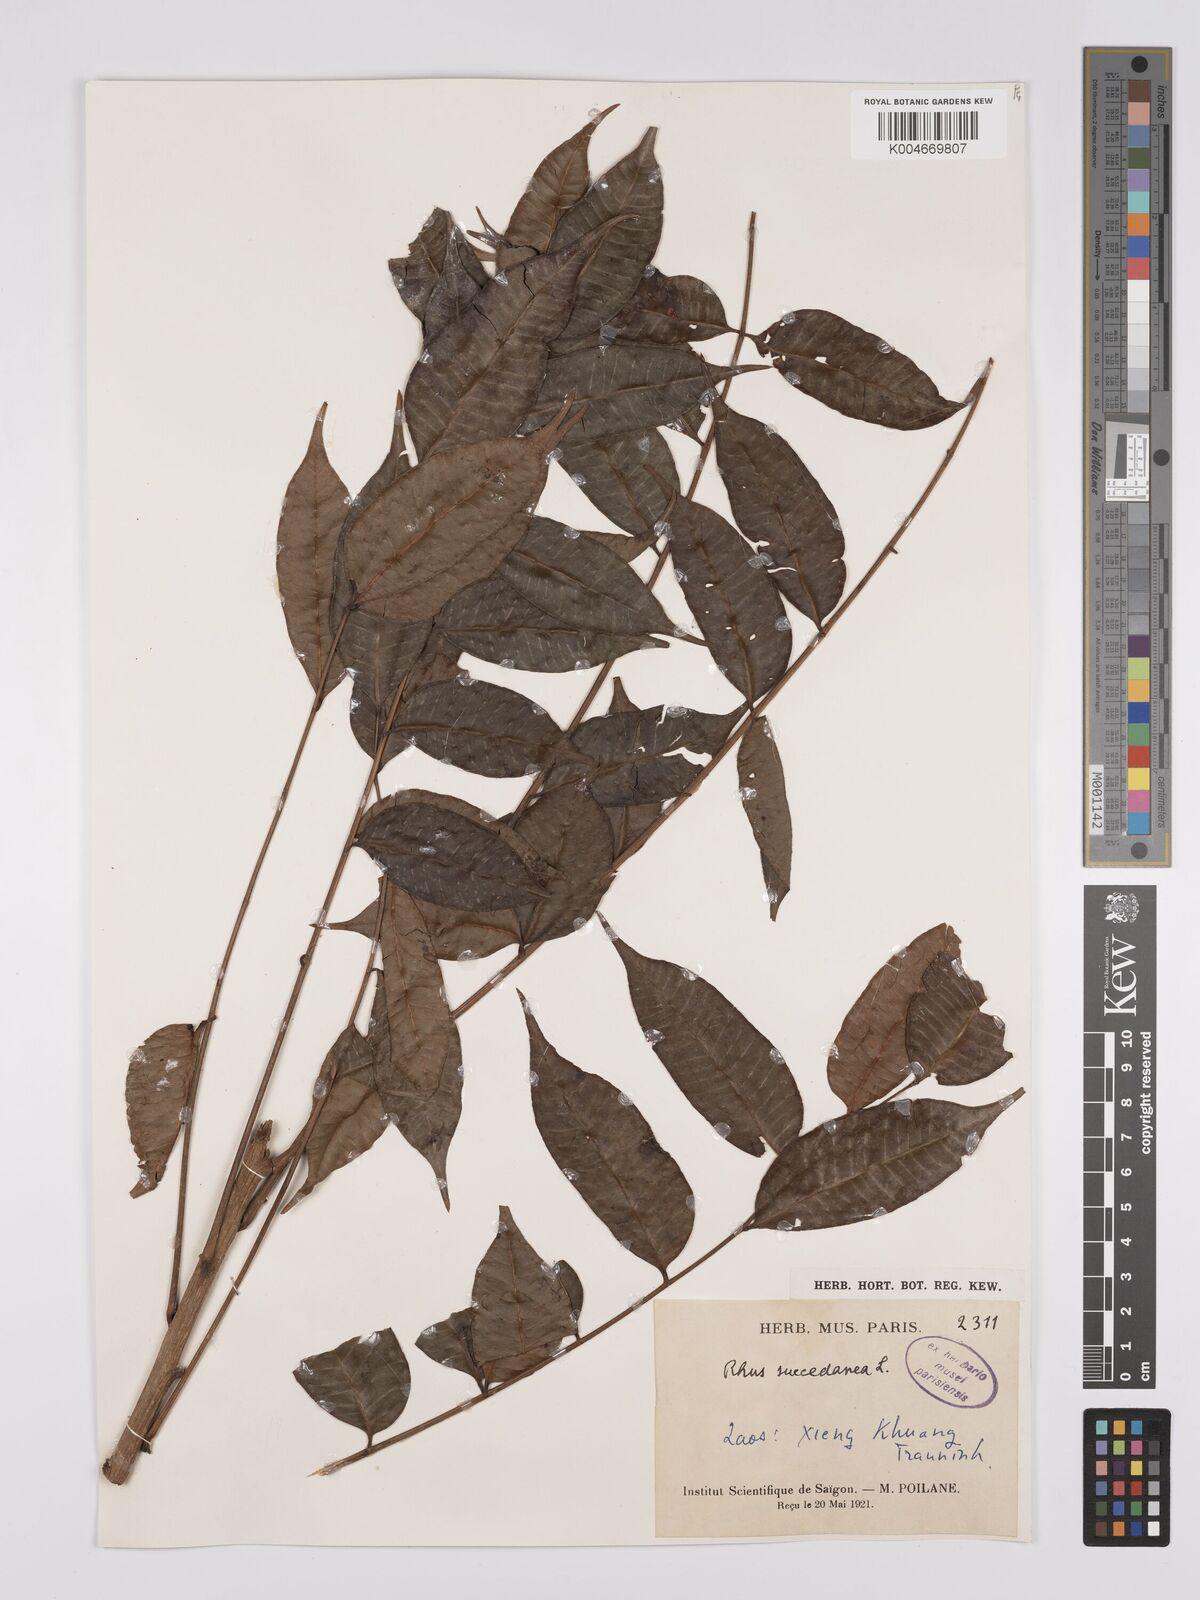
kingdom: Plantae
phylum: Tracheophyta
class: Magnoliopsida
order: Sapindales
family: Anacardiaceae
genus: Toxicodendron
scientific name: Toxicodendron succedaneum
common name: Wax tree
